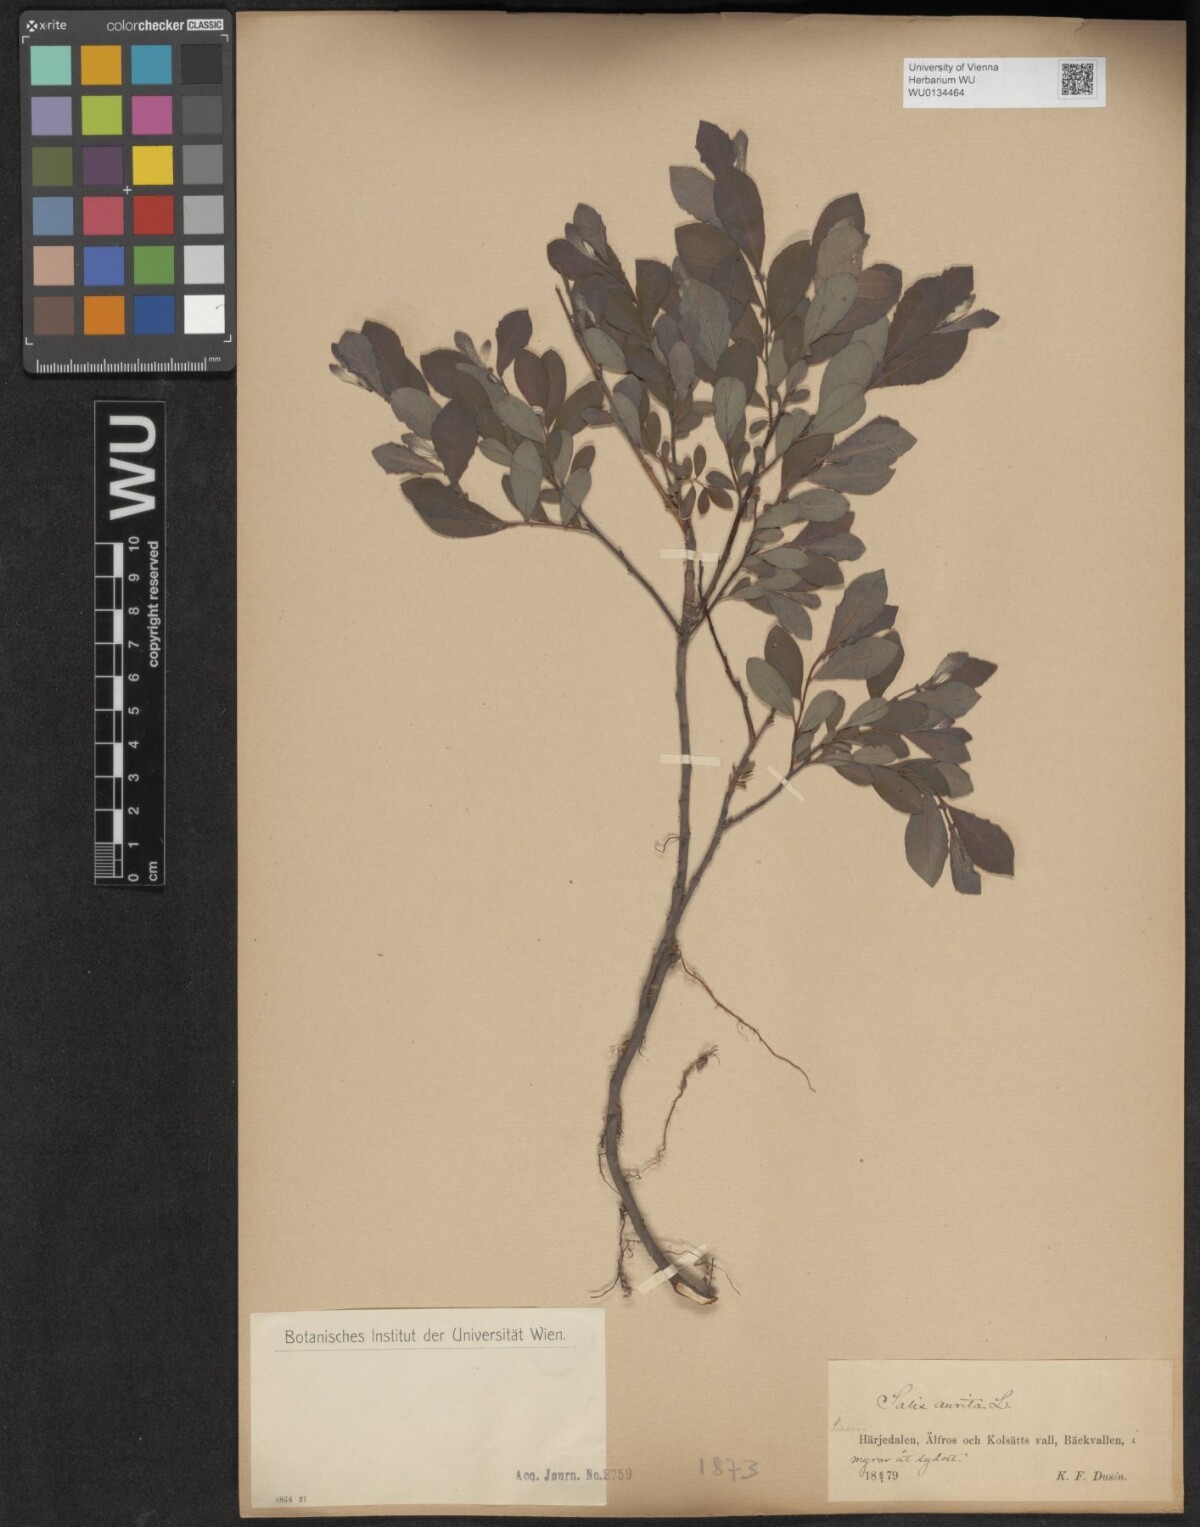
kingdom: Plantae
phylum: Tracheophyta
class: Magnoliopsida
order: Malpighiales
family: Salicaceae
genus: Salix
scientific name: Salix aurita
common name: Eared willow
